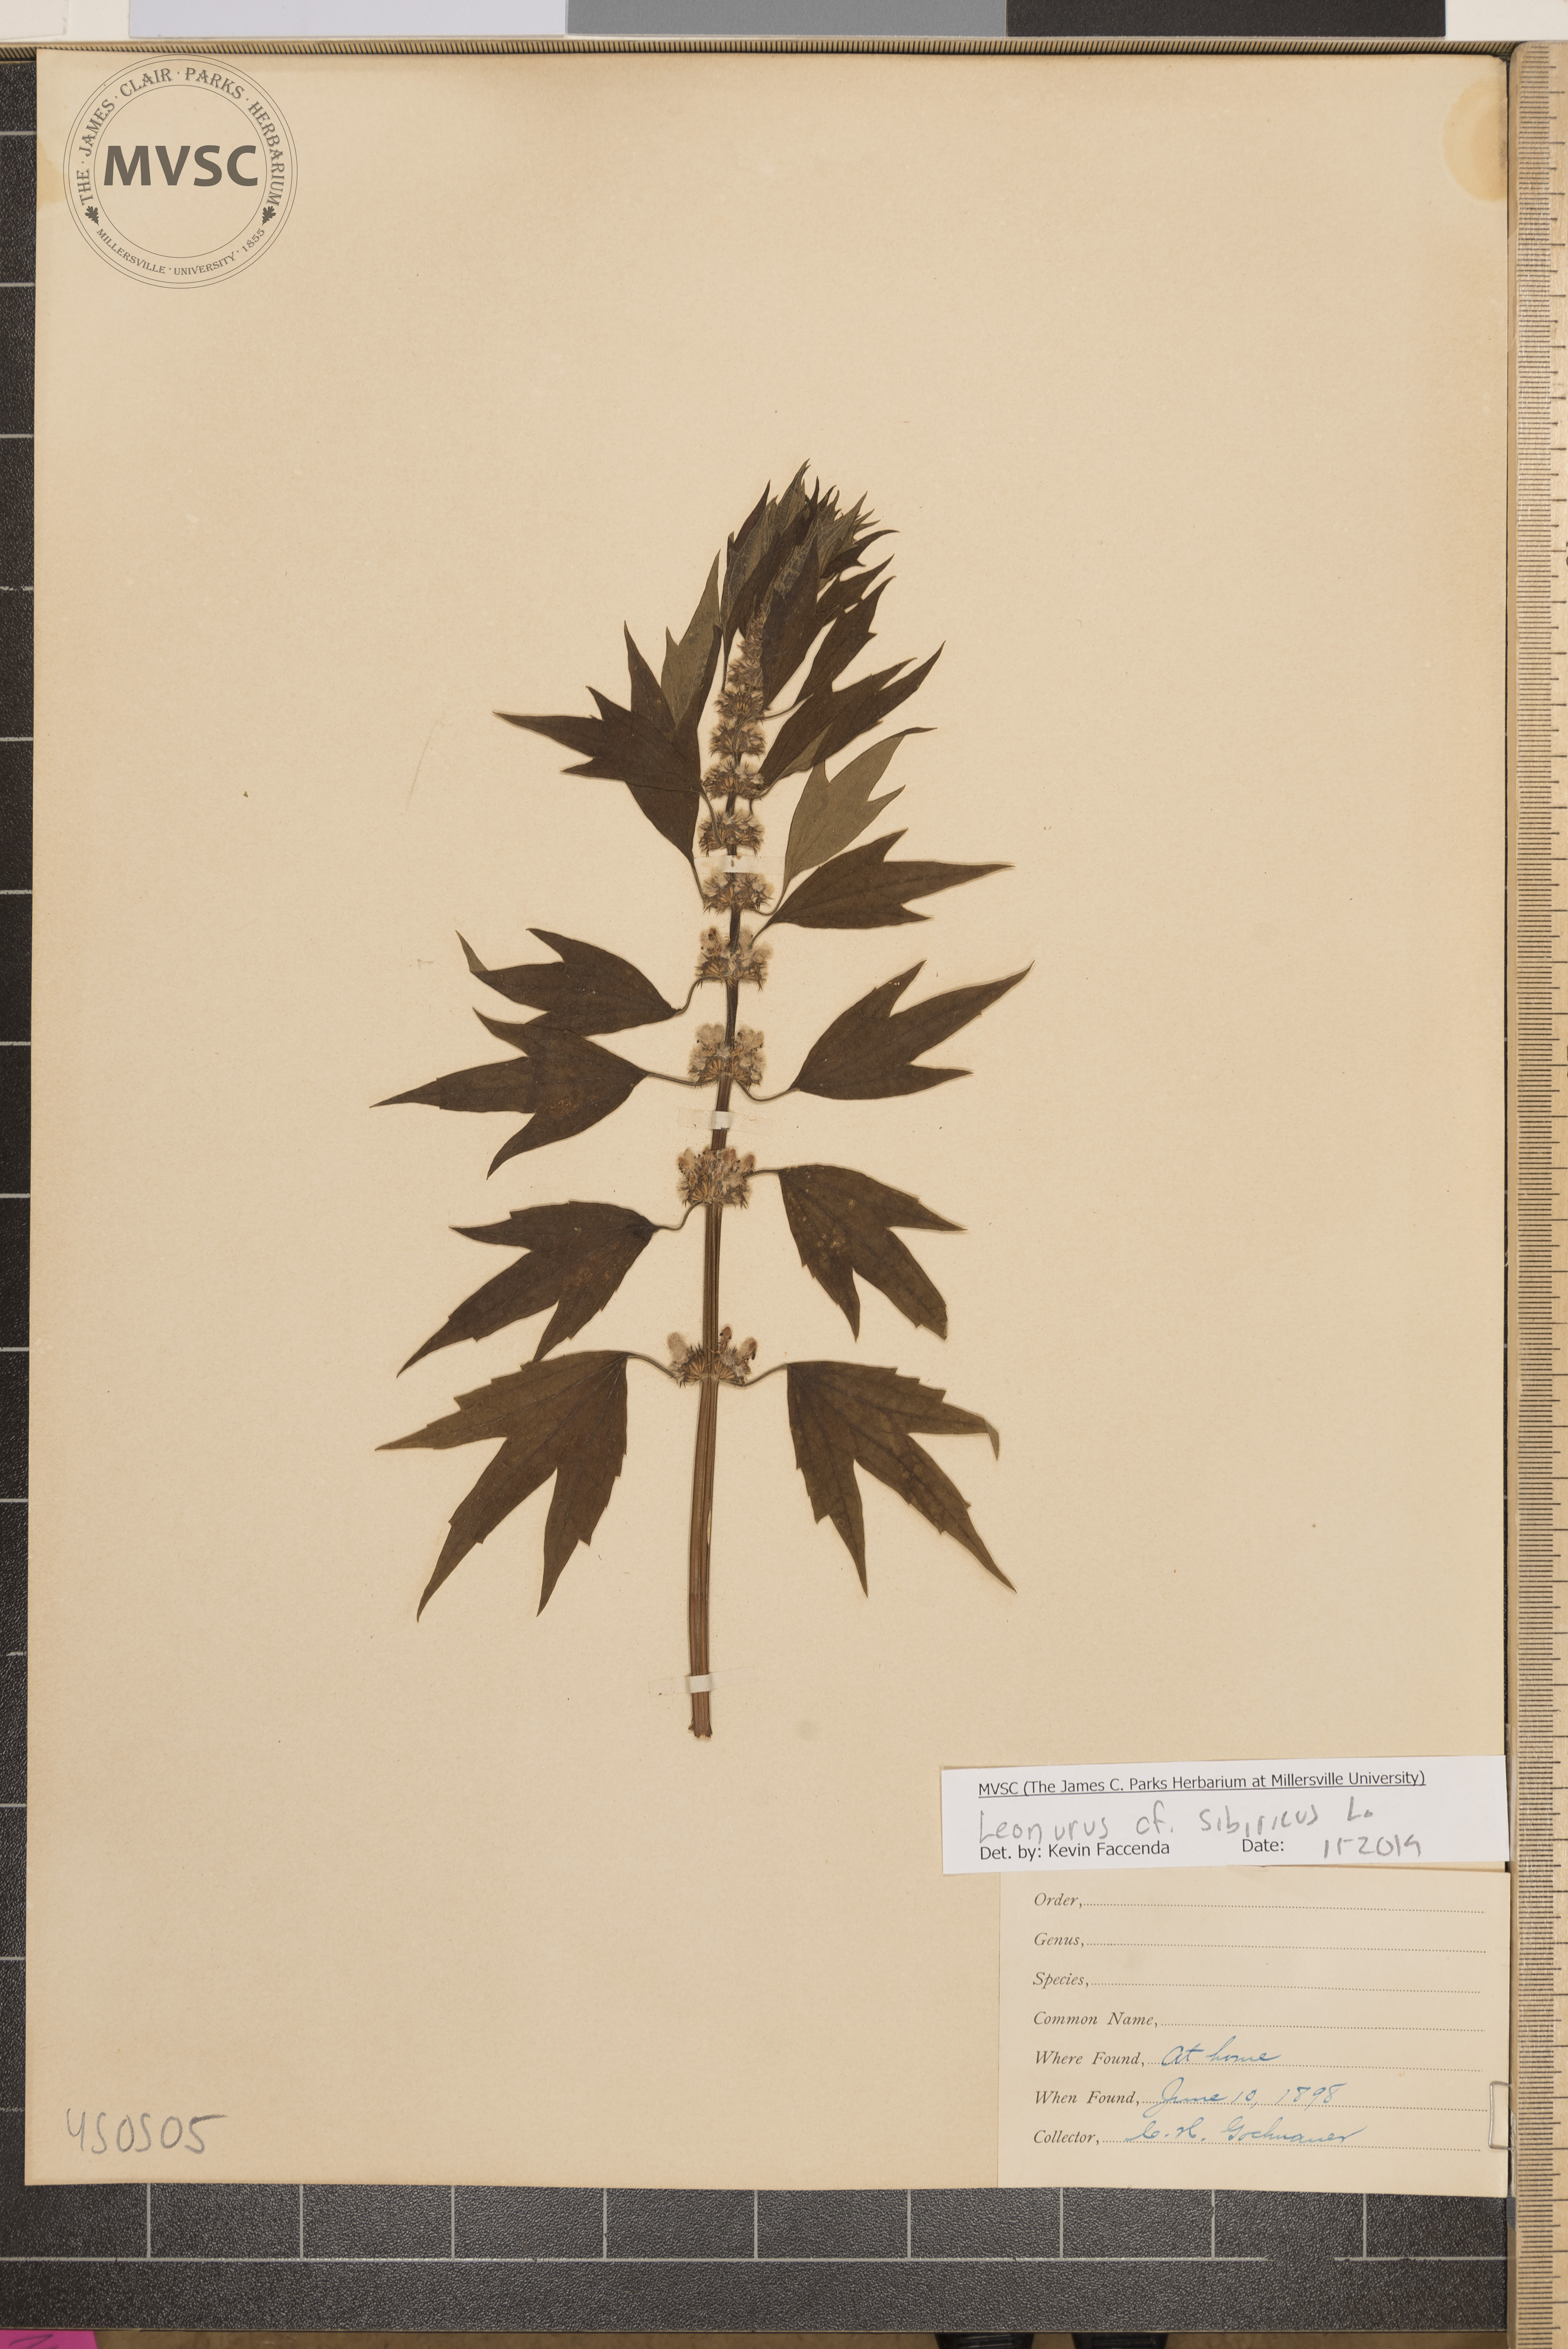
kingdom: Plantae
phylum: Tracheophyta
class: Magnoliopsida
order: Lamiales
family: Lamiaceae
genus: Leonurus
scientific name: Leonurus sibiricus
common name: Honeyweed
